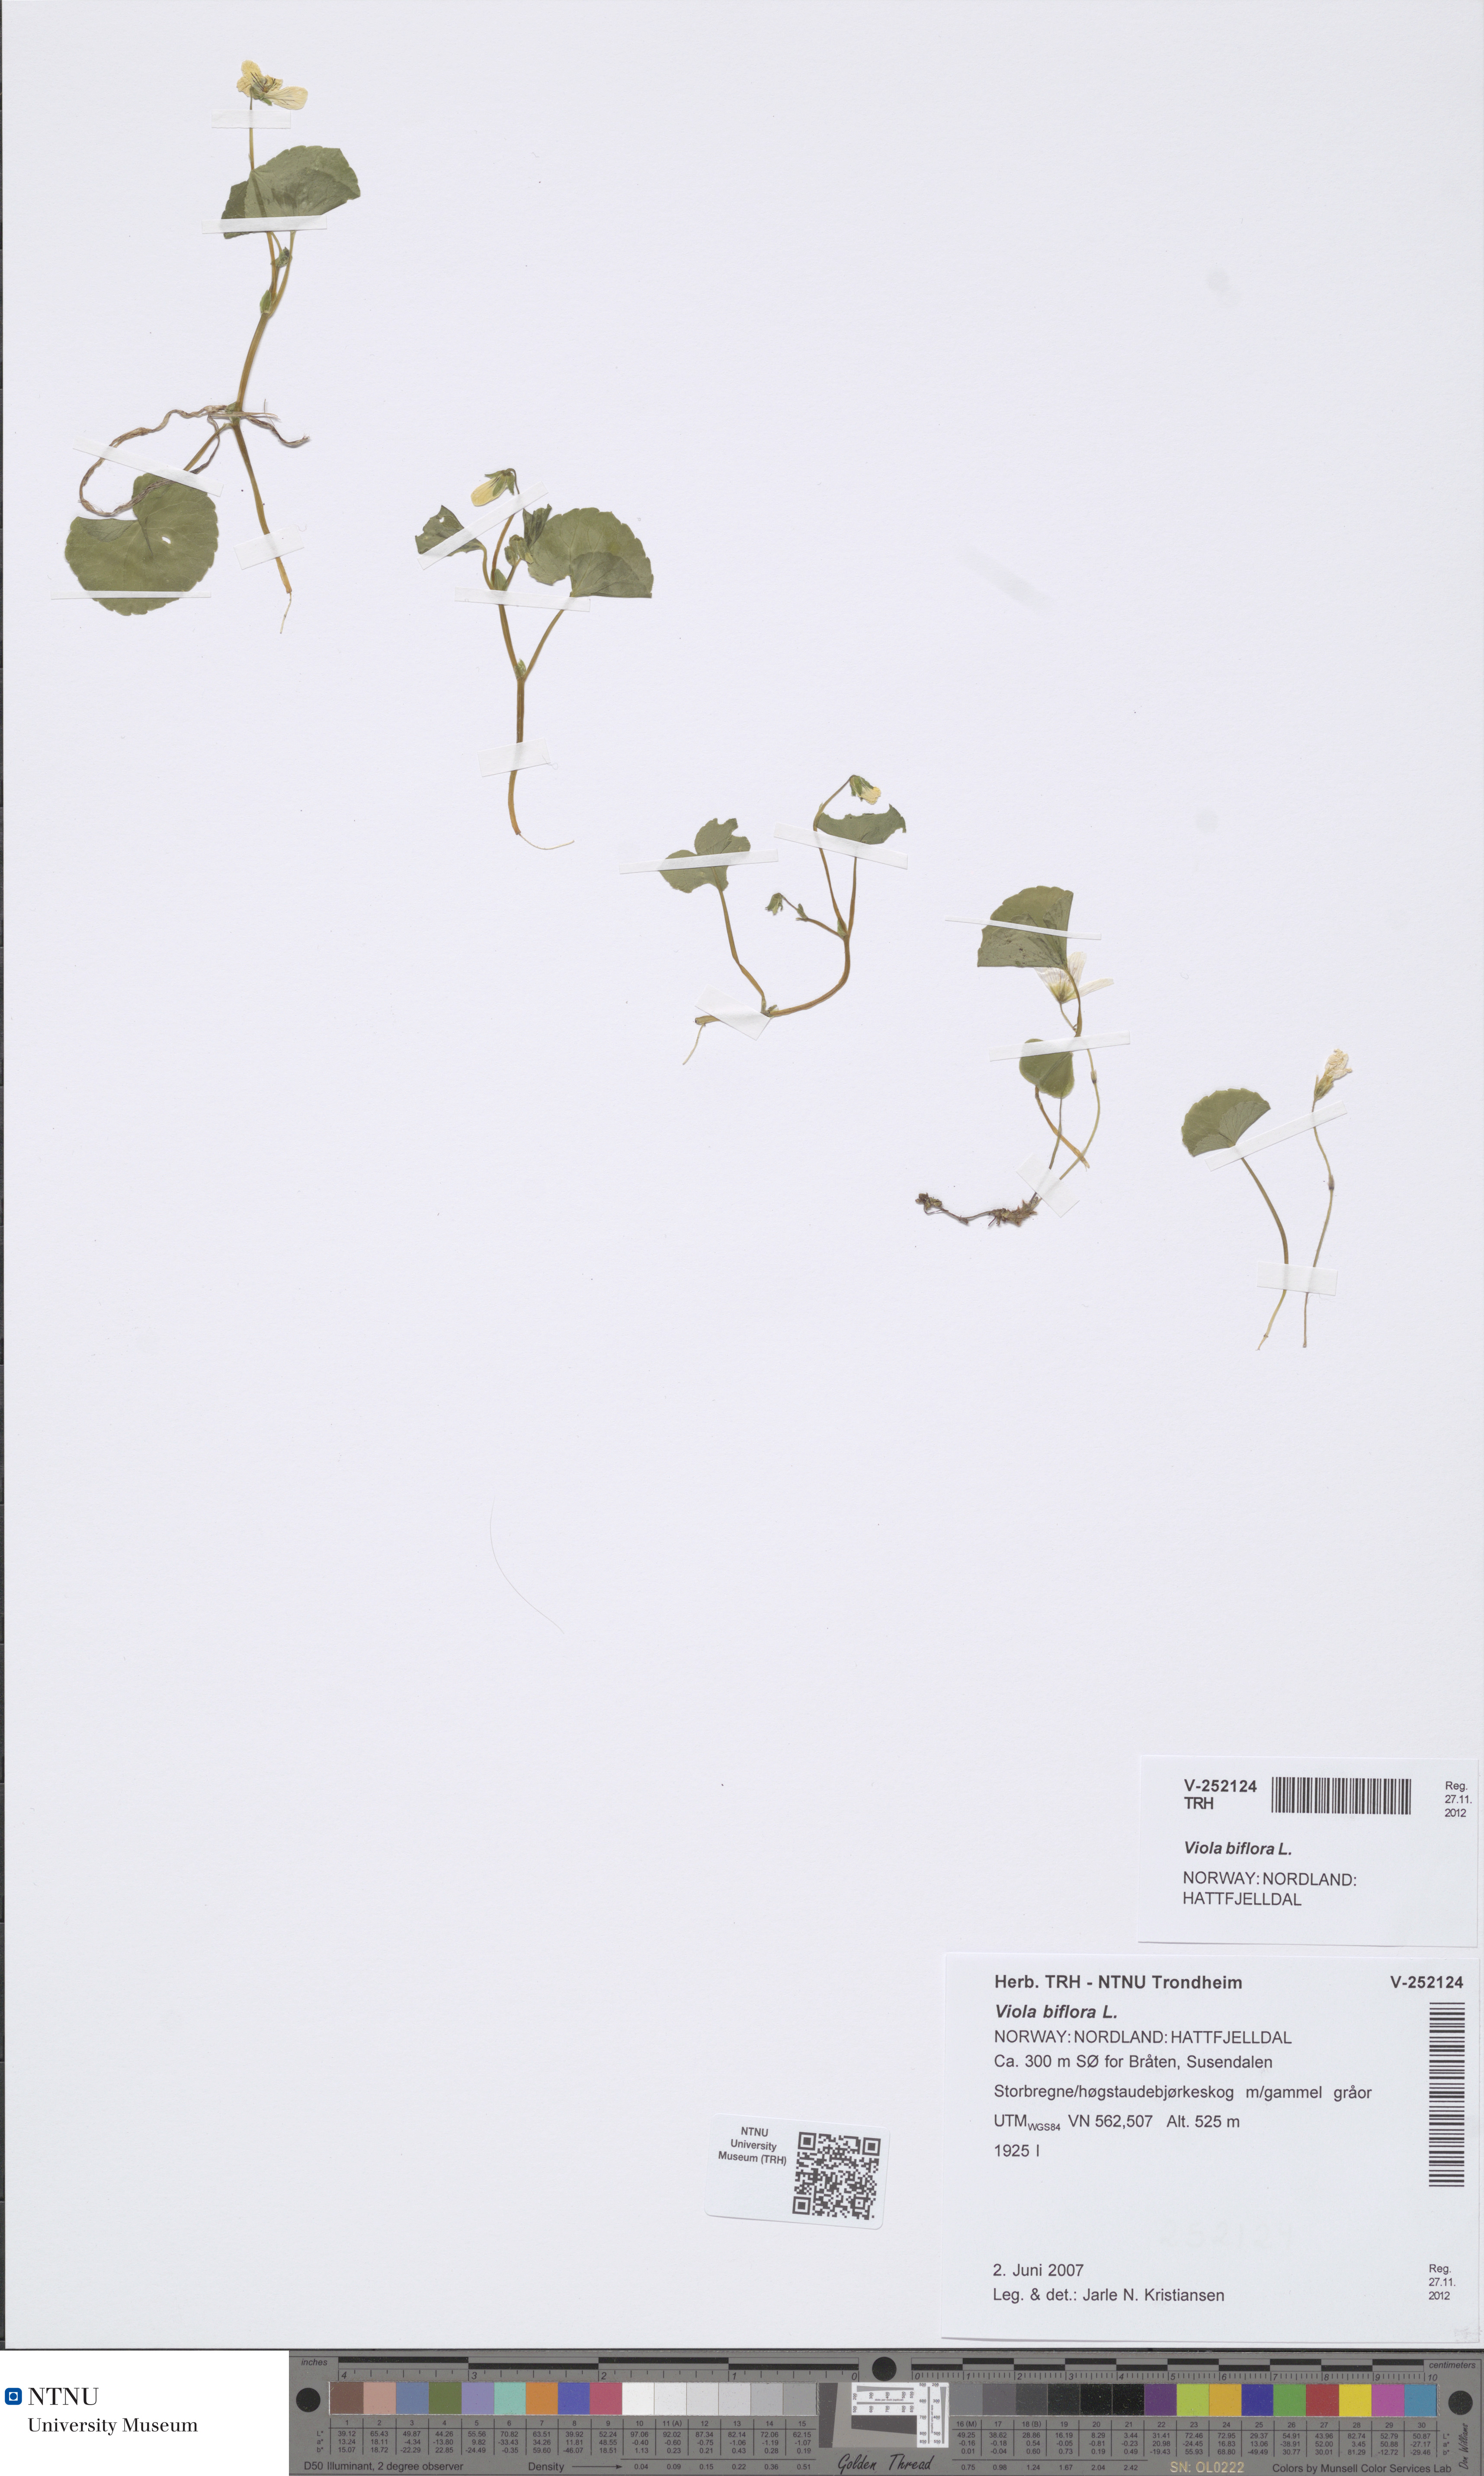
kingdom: Plantae
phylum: Tracheophyta
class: Magnoliopsida
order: Malpighiales
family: Violaceae
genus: Viola
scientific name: Viola biflora
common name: Alpine yellow violet
